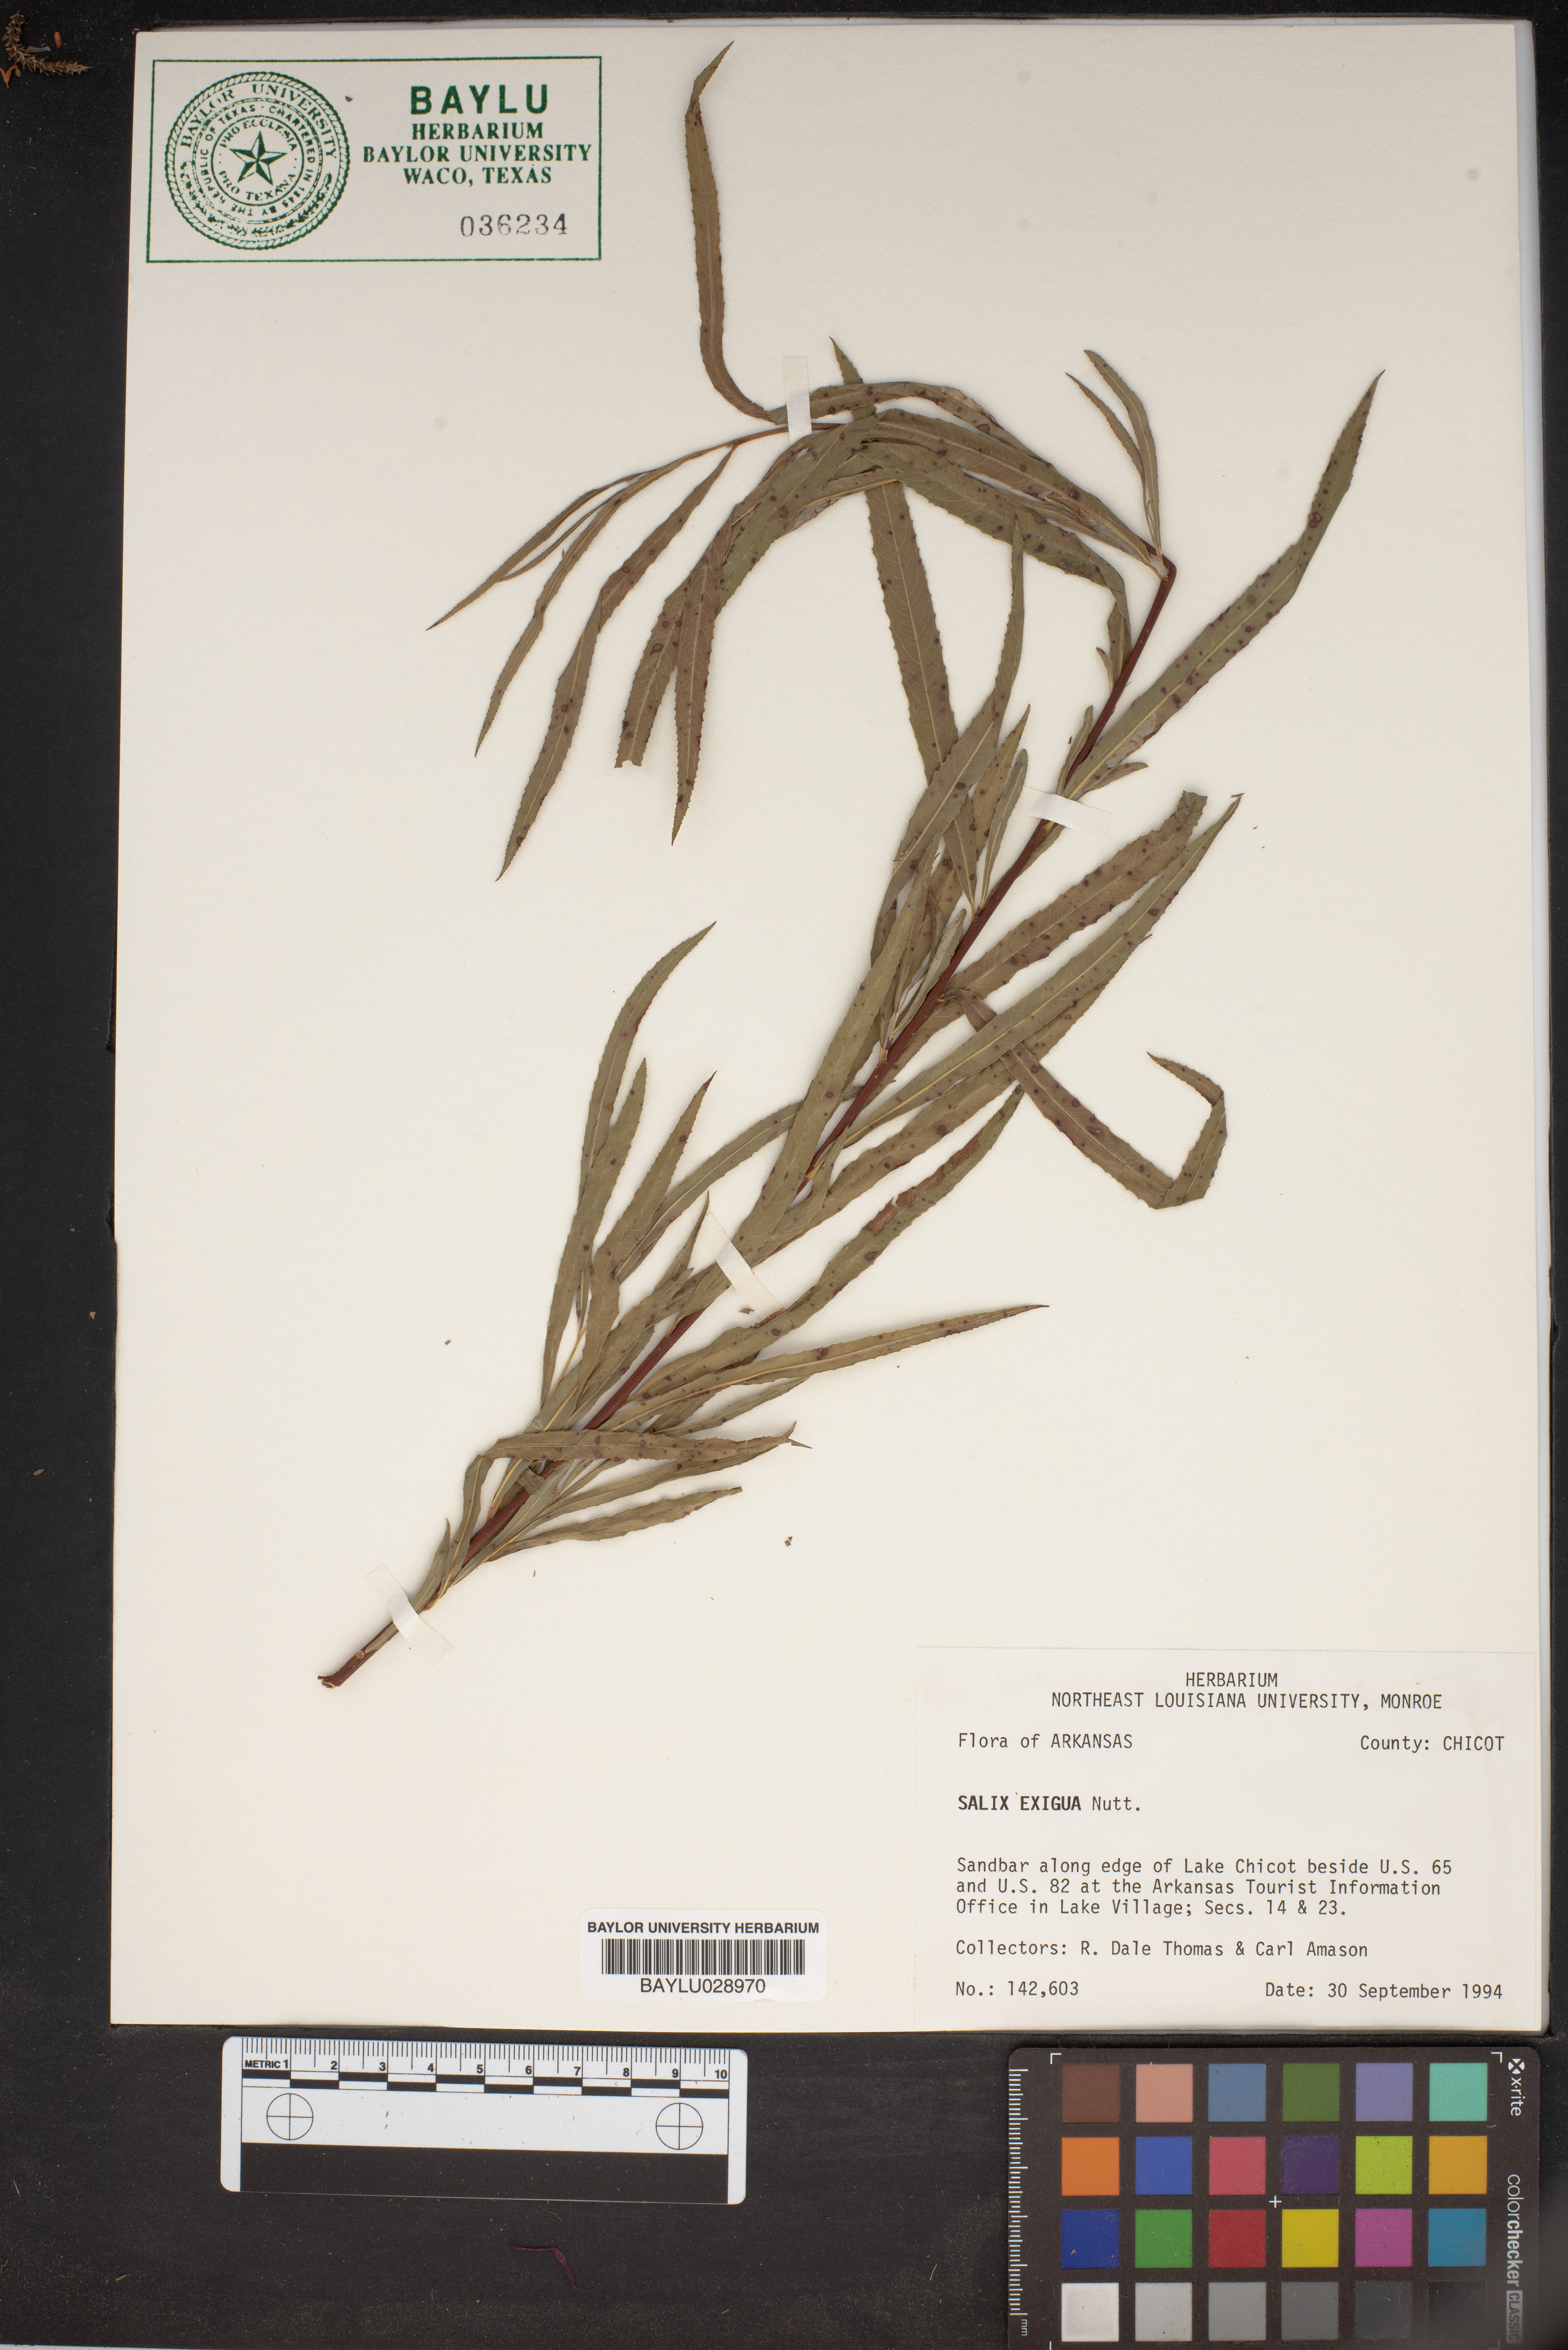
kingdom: Plantae
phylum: Tracheophyta
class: Magnoliopsida
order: Malpighiales
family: Salicaceae
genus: Salix
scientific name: Salix exigua
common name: Coyote willow
